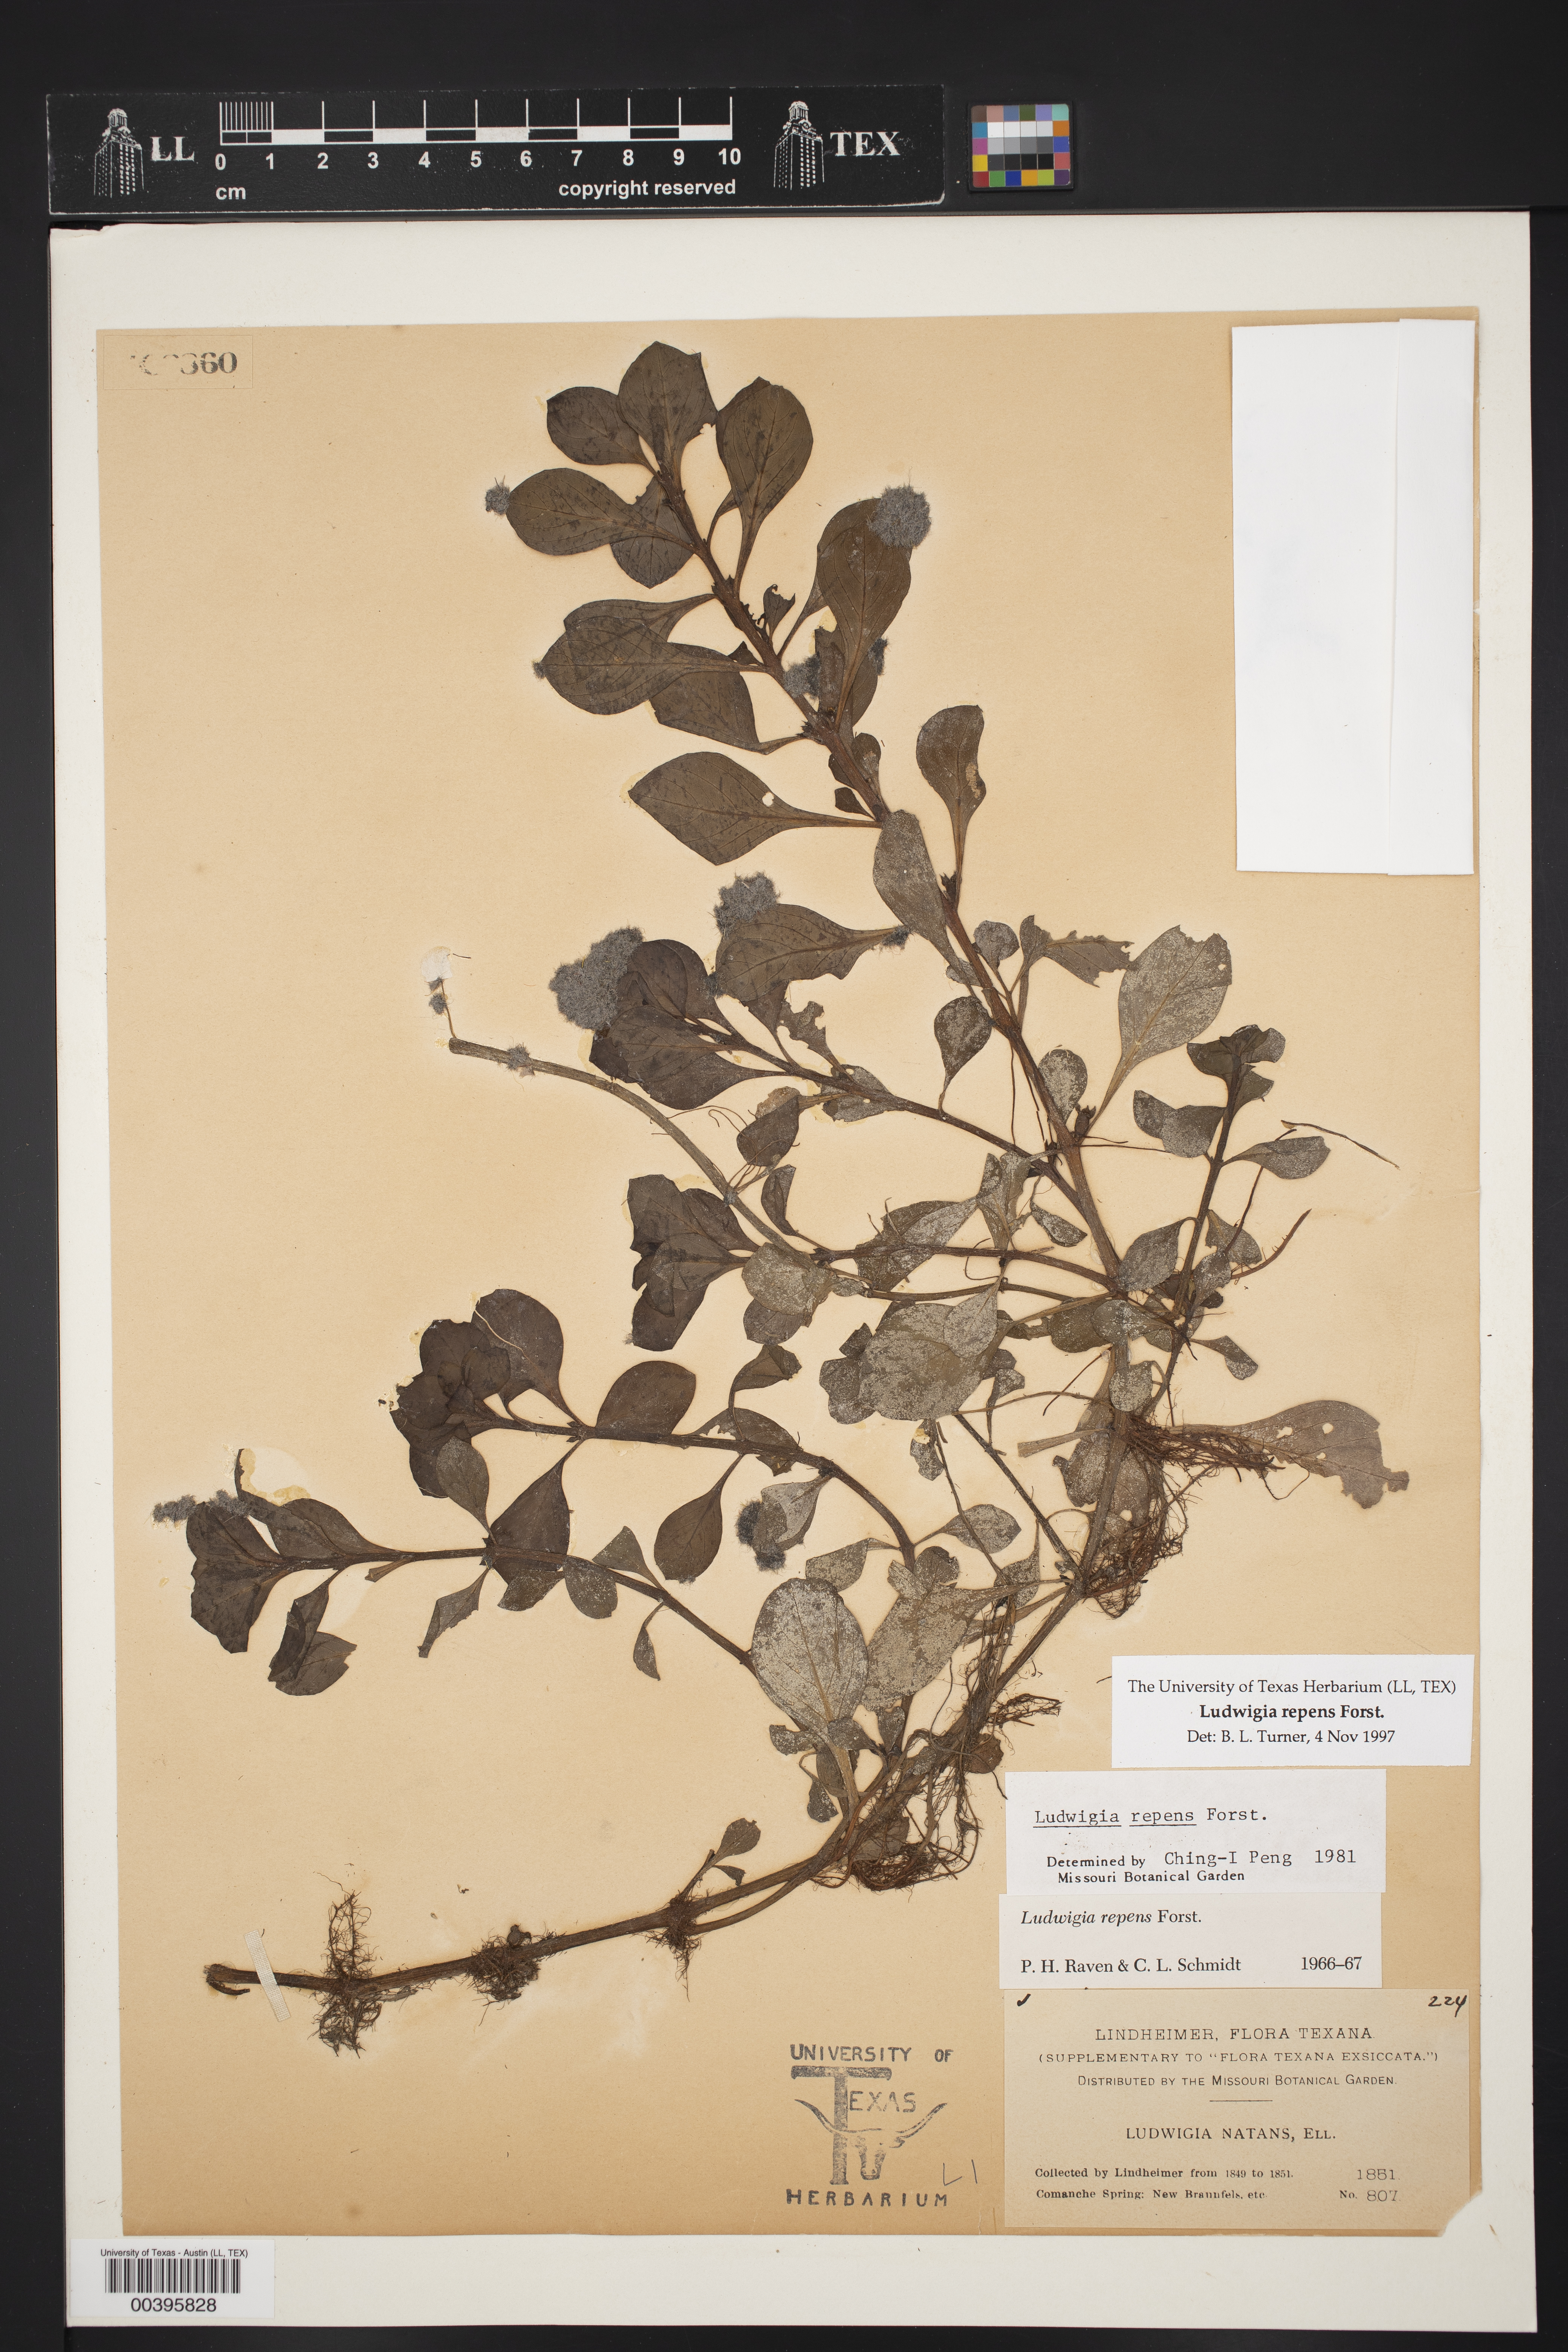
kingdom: Plantae
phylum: Tracheophyta
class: Magnoliopsida
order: Myrtales
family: Onagraceae
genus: Ludwigia
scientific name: Ludwigia repens
